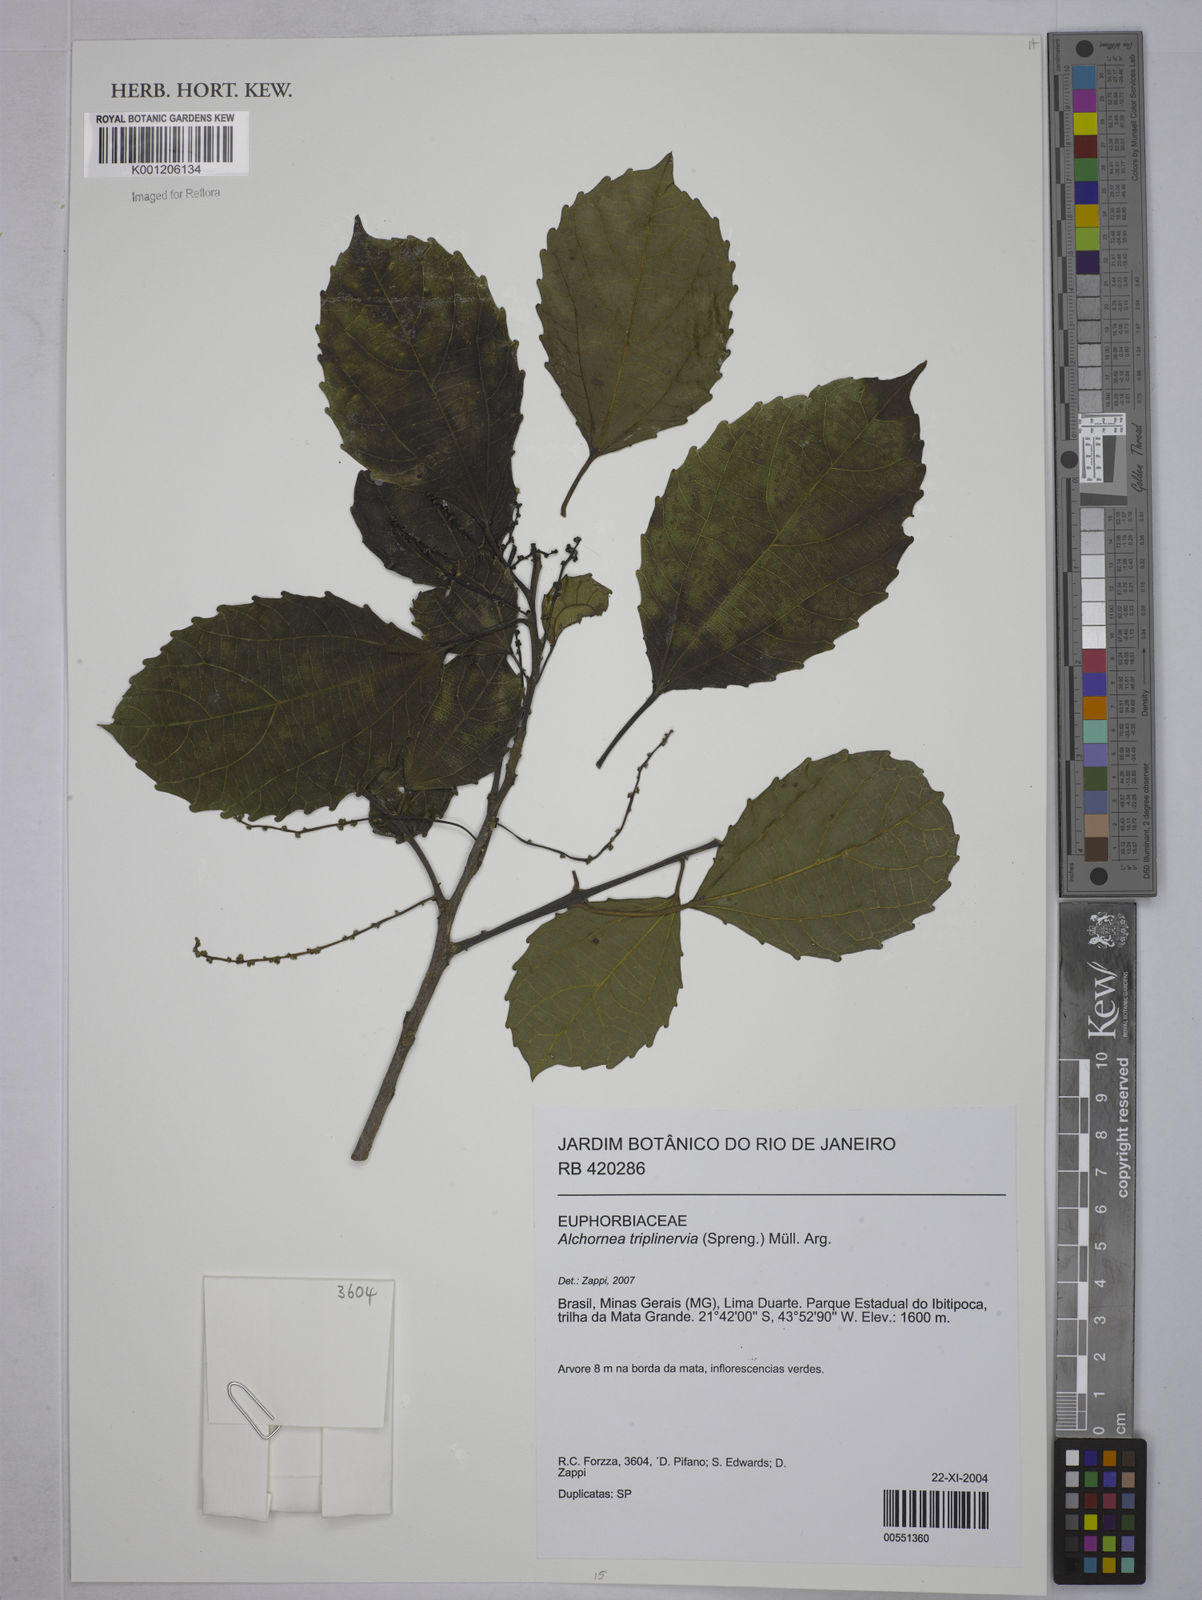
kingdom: Plantae
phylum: Tracheophyta
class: Magnoliopsida
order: Malpighiales
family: Euphorbiaceae
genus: Alchornea
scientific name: Alchornea
